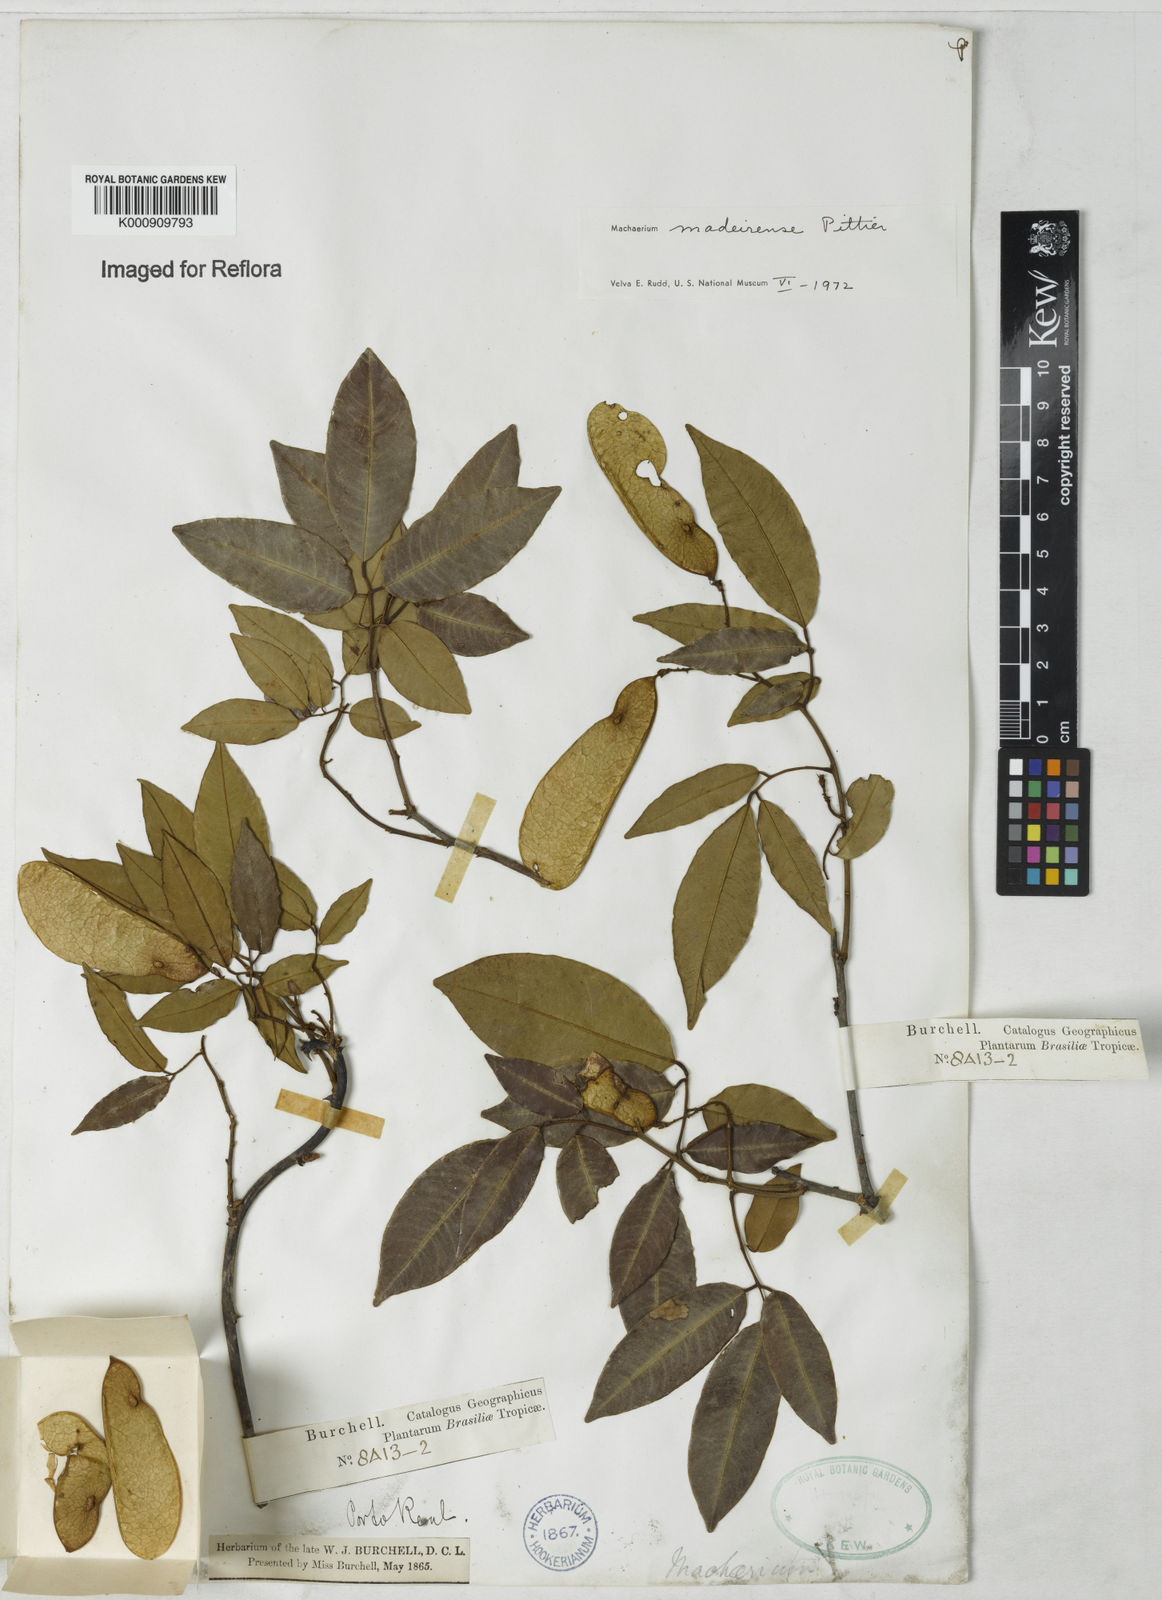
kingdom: Plantae
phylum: Tracheophyta
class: Magnoliopsida
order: Fabales
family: Fabaceae
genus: Machaerium
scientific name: Machaerium madeirense
